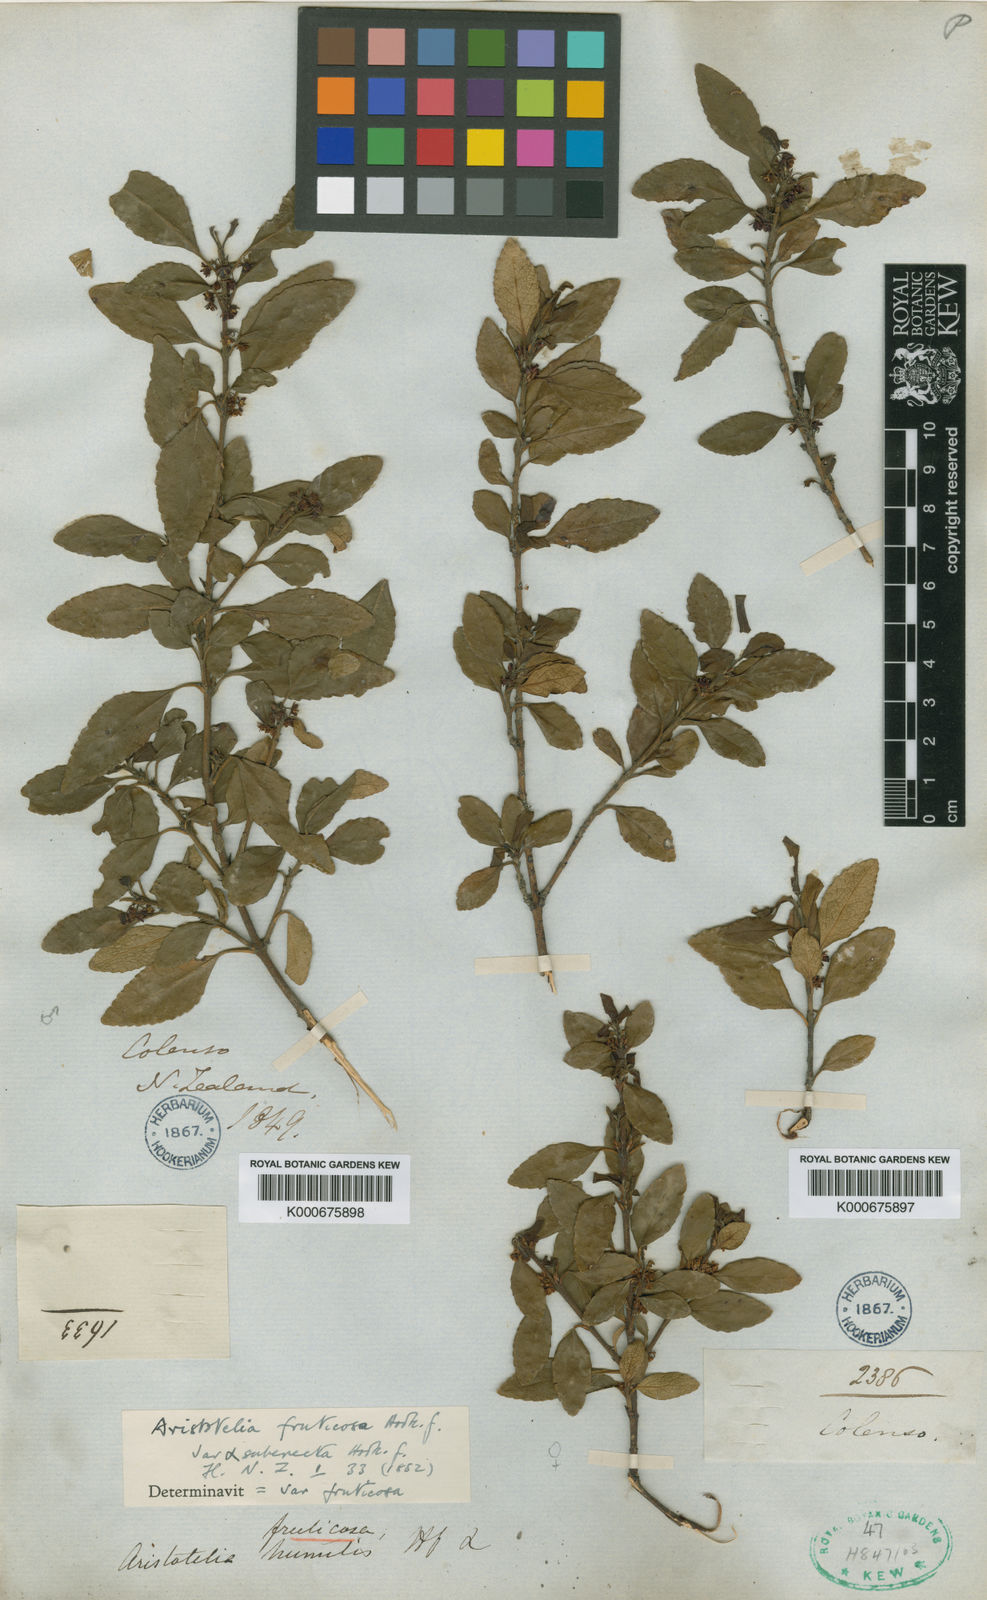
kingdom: Plantae
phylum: Tracheophyta
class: Magnoliopsida
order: Oxalidales
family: Elaeocarpaceae
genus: Aristotelia
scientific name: Aristotelia fruticosa
